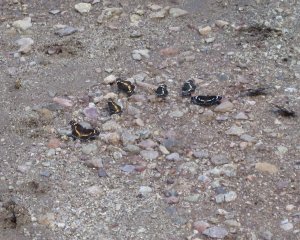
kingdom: Animalia
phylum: Arthropoda
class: Insecta
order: Lepidoptera
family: Nymphalidae
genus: Chlosyne
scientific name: Chlosyne lacinia
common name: Bordered Patch
